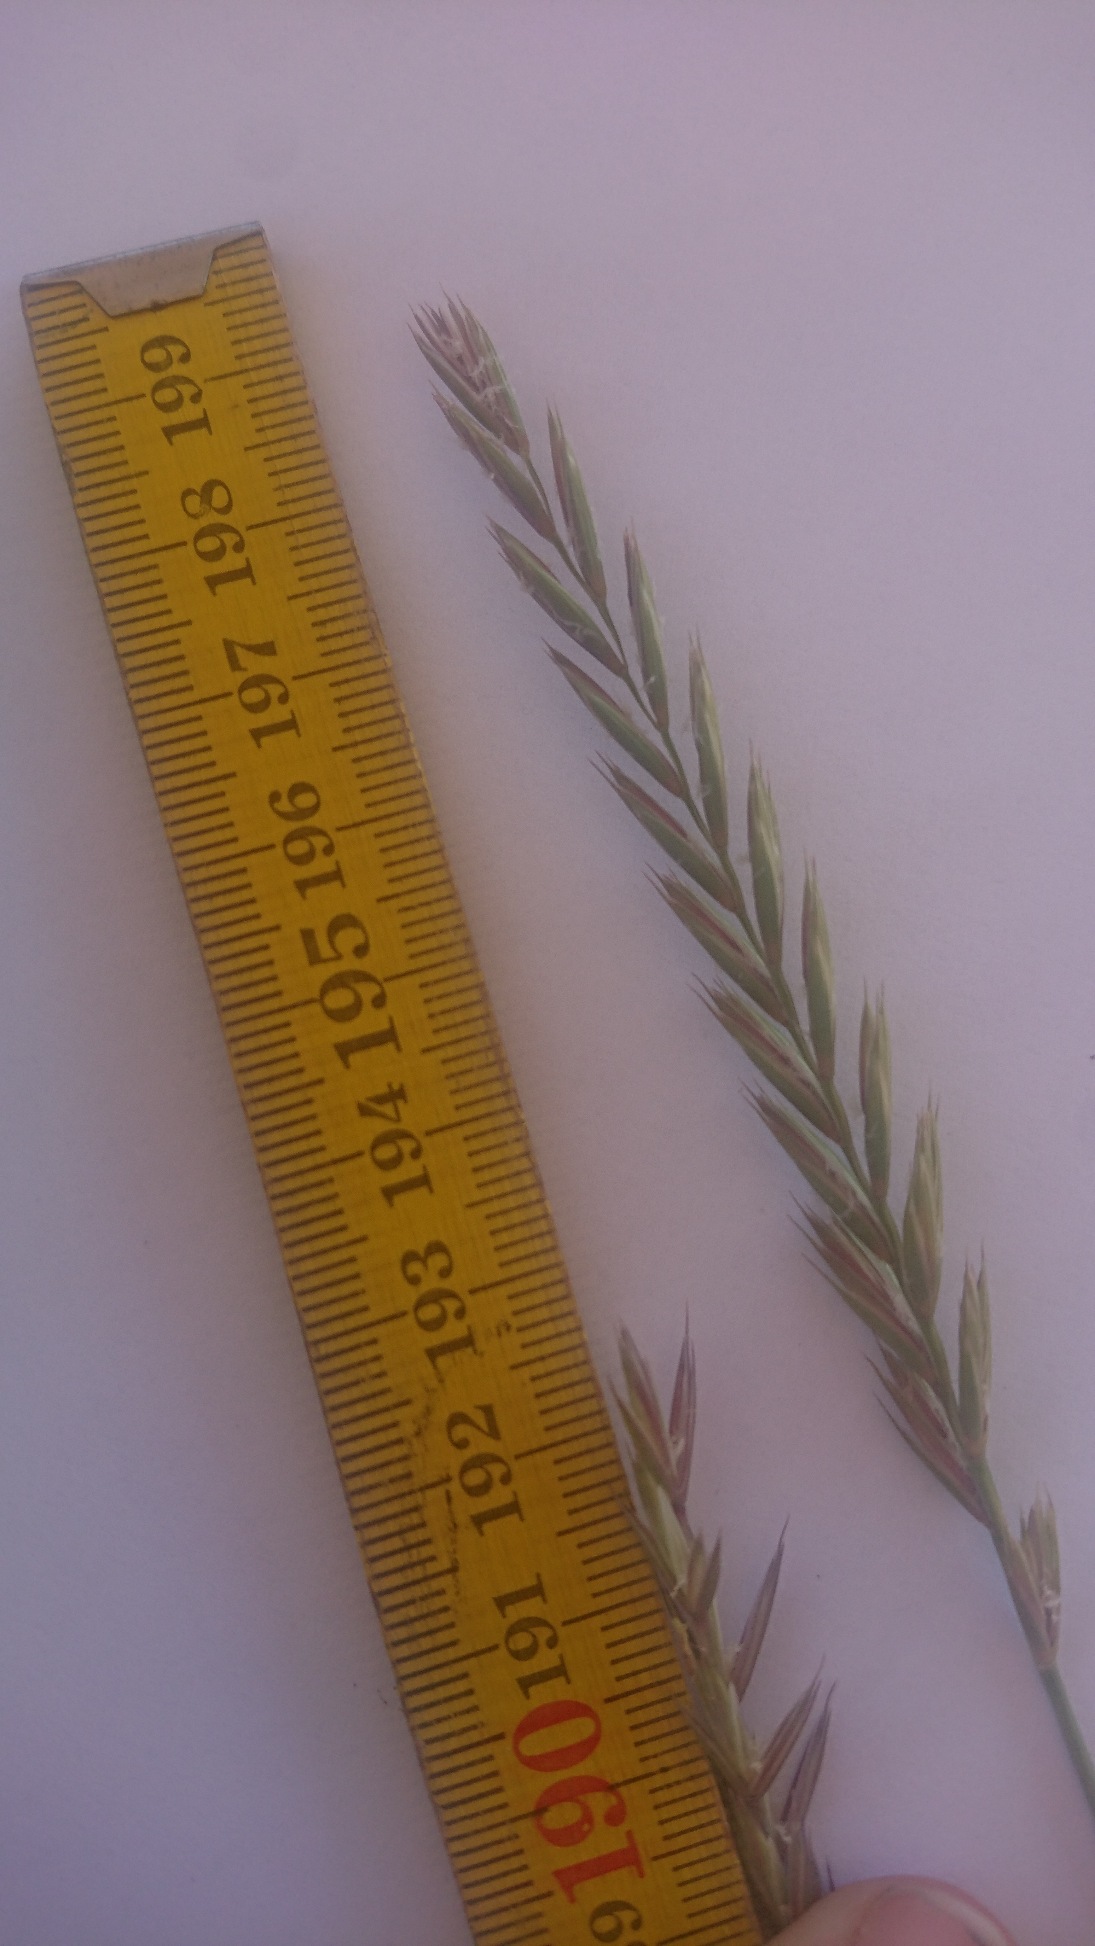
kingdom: Plantae
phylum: Tracheophyta
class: Liliopsida
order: Poales
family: Poaceae
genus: Elymus
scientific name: Elymus repens
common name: Almindelig kvik
